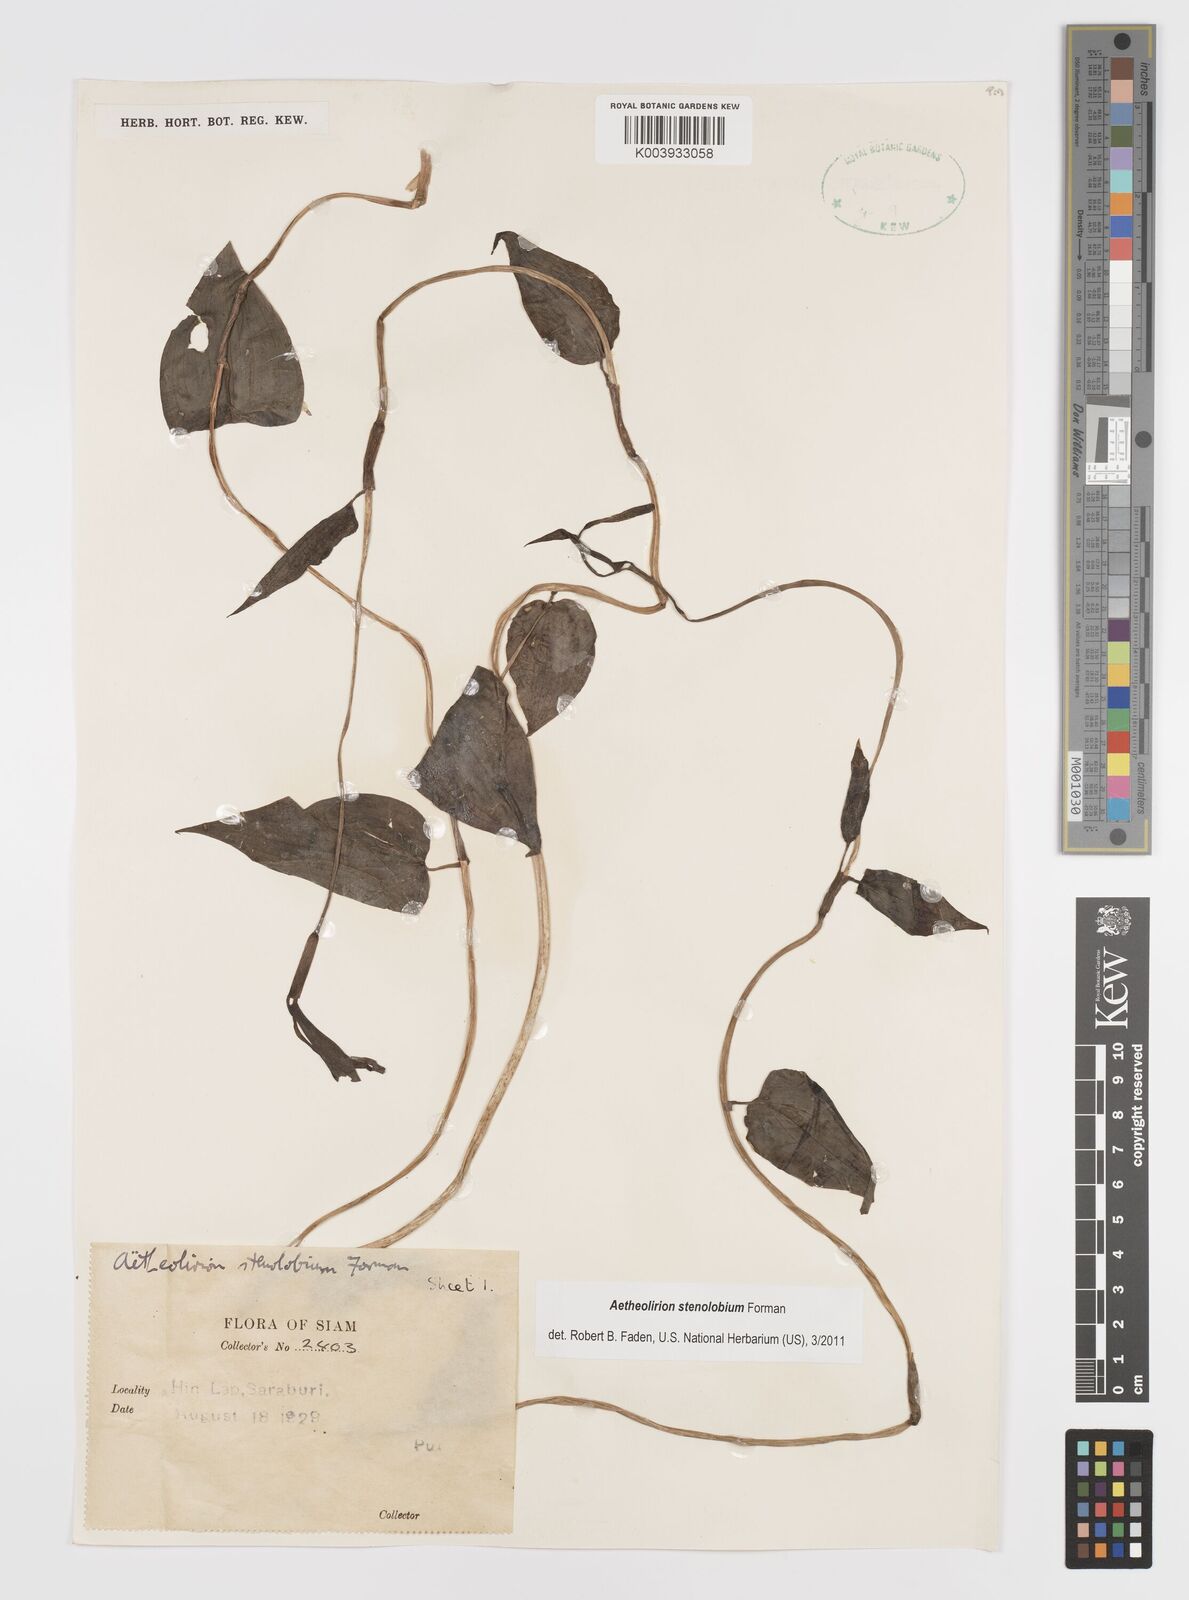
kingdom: Plantae
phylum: Tracheophyta
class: Liliopsida
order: Commelinales
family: Commelinaceae
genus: Aetheolirion
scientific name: Aetheolirion stenolobium
